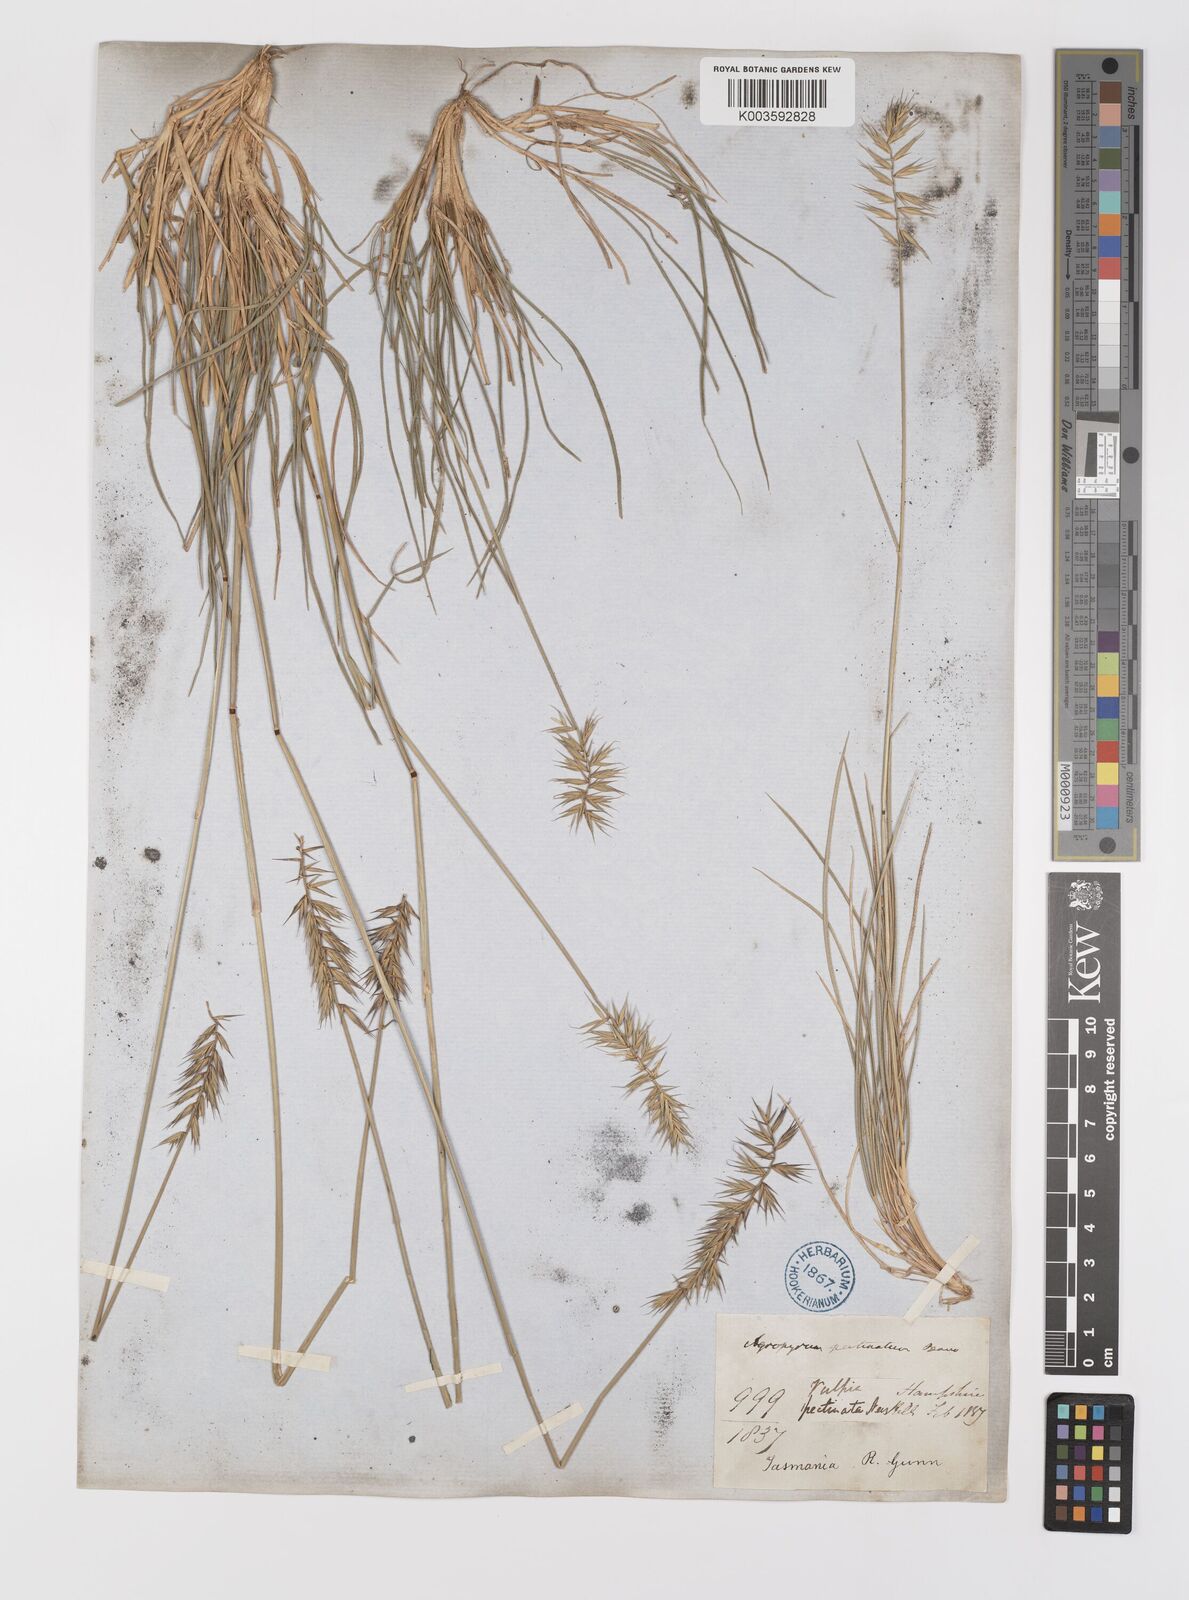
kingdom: Plantae
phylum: Tracheophyta
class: Liliopsida
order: Poales
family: Poaceae
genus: Australopyrum
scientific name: Australopyrum pectinatum
